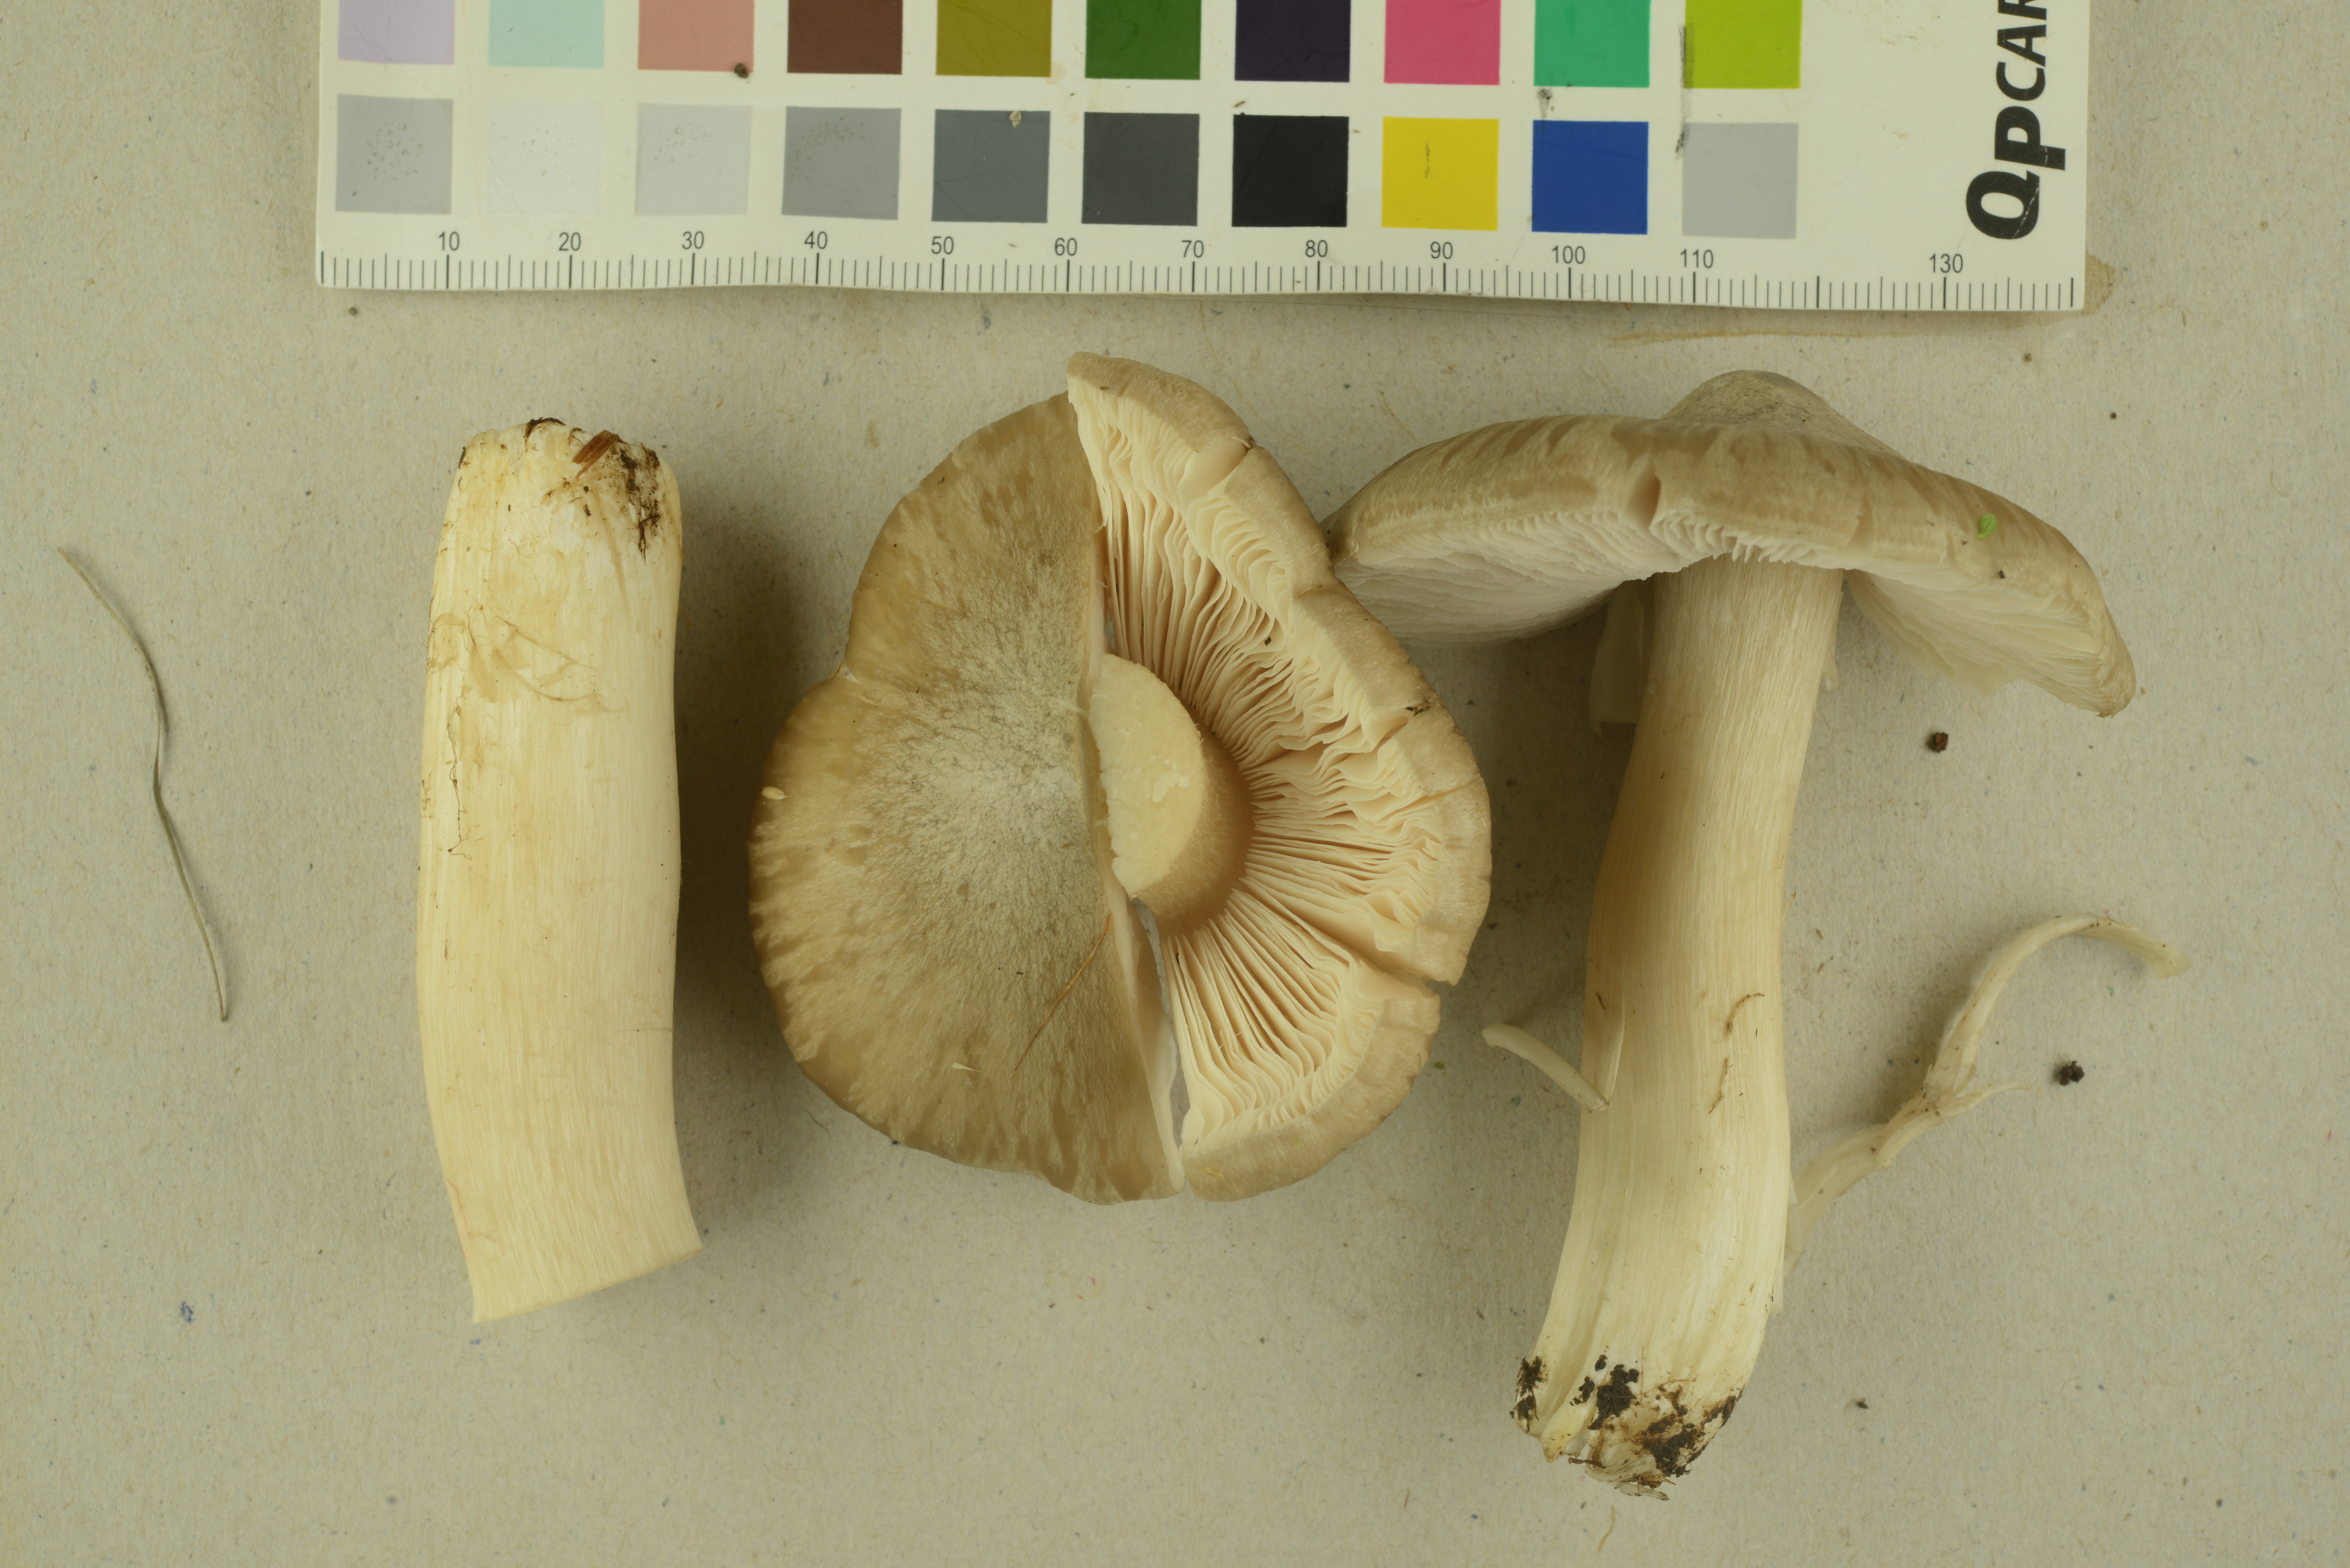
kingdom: Fungi
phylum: Basidiomycota
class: Agaricomycetes
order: Agaricales
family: Entolomataceae
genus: Entoloma
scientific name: Entoloma prunuloides
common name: Mealy pinkgill
